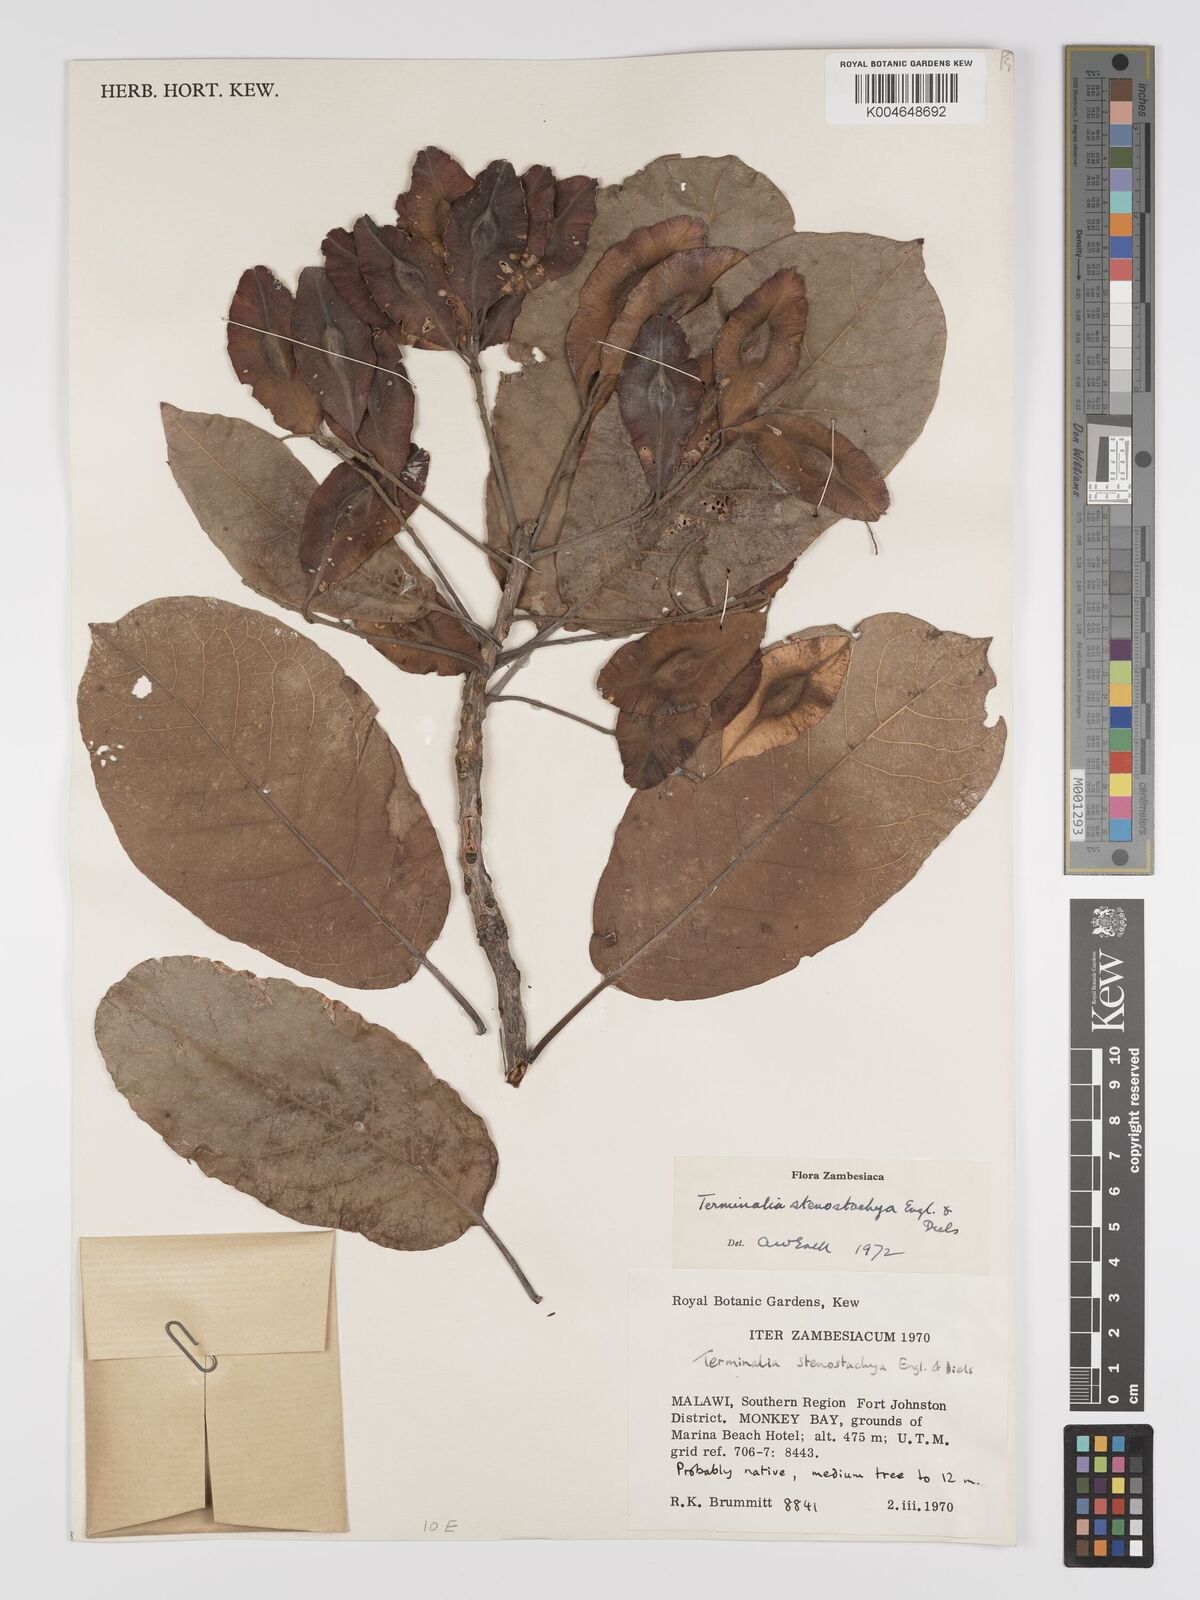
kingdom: Plantae
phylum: Tracheophyta
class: Magnoliopsida
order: Myrtales
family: Combretaceae
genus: Terminalia
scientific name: Terminalia stenostachya
